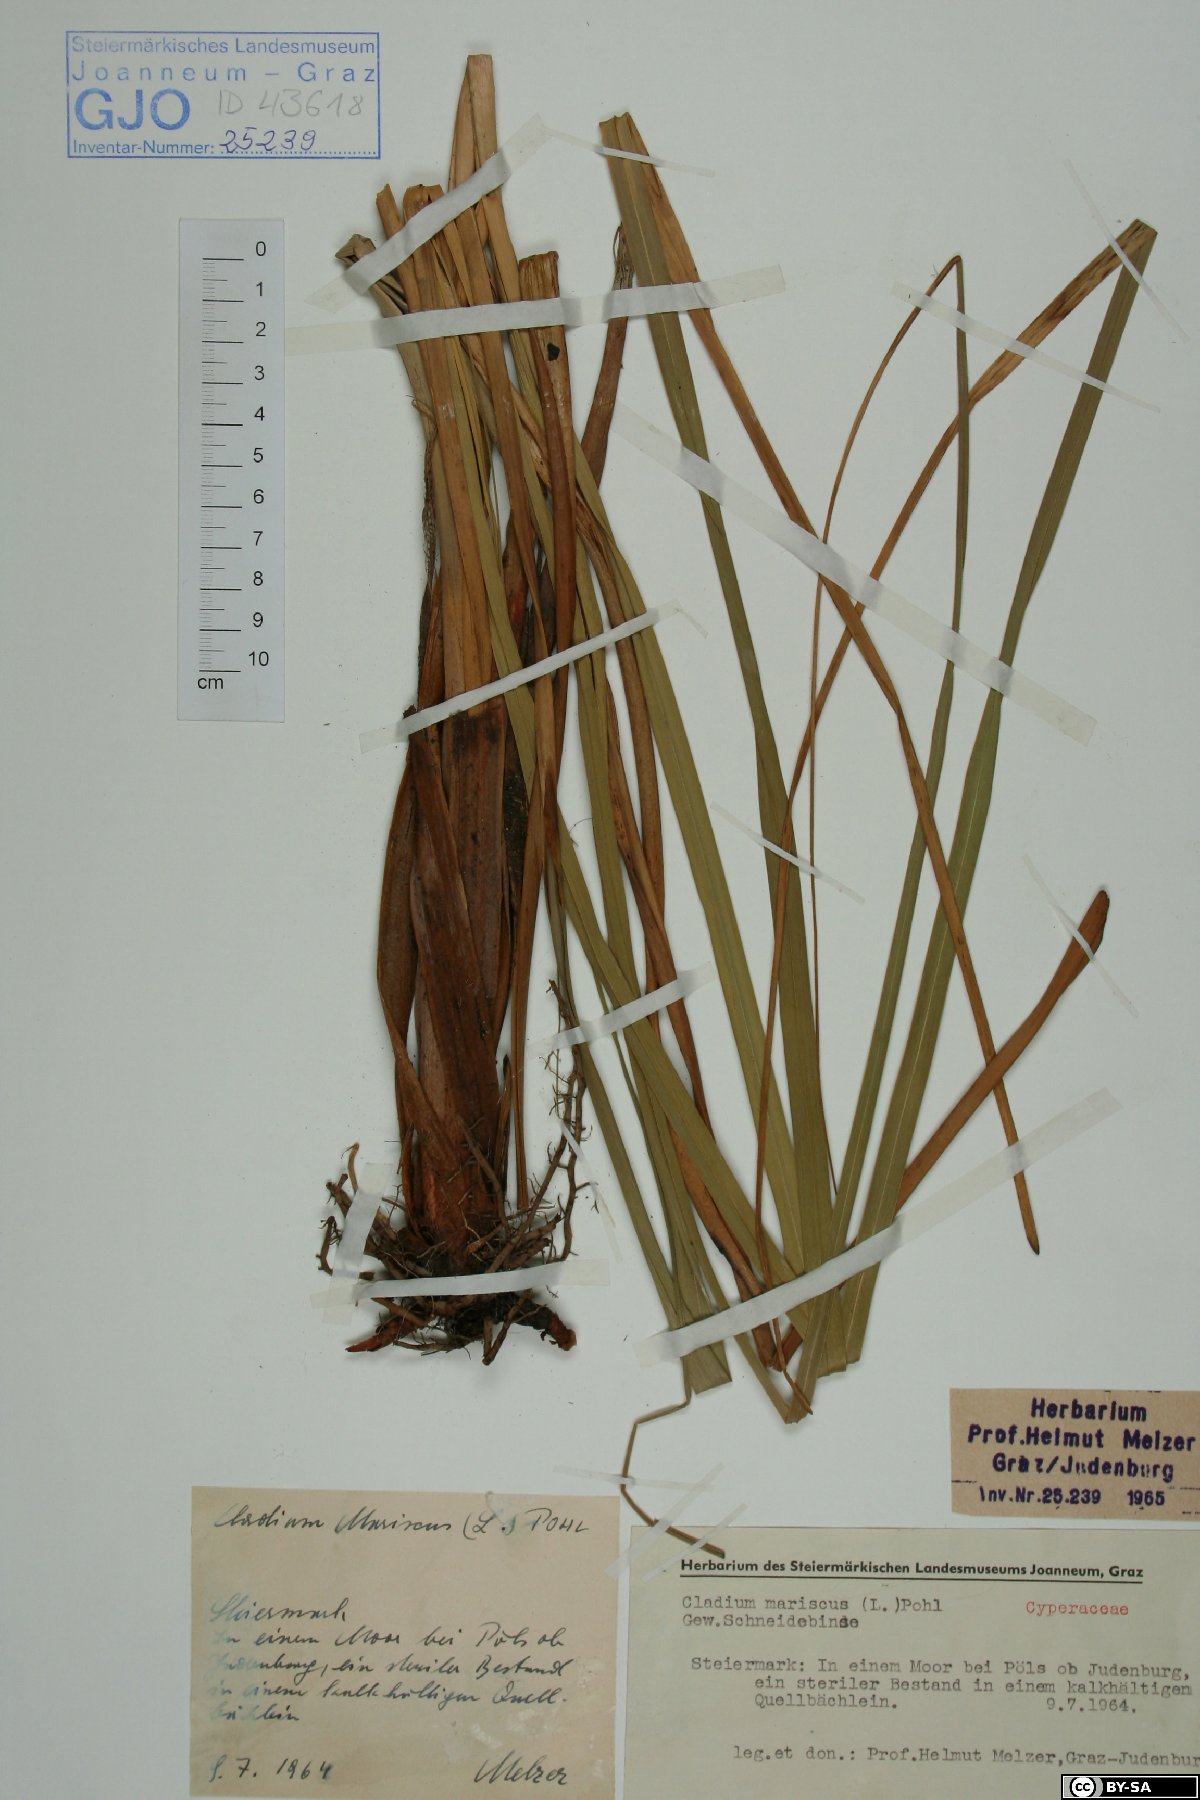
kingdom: Plantae
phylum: Tracheophyta
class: Liliopsida
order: Poales
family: Cyperaceae
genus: Cladium
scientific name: Cladium mariscus
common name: Great fen-sedge
